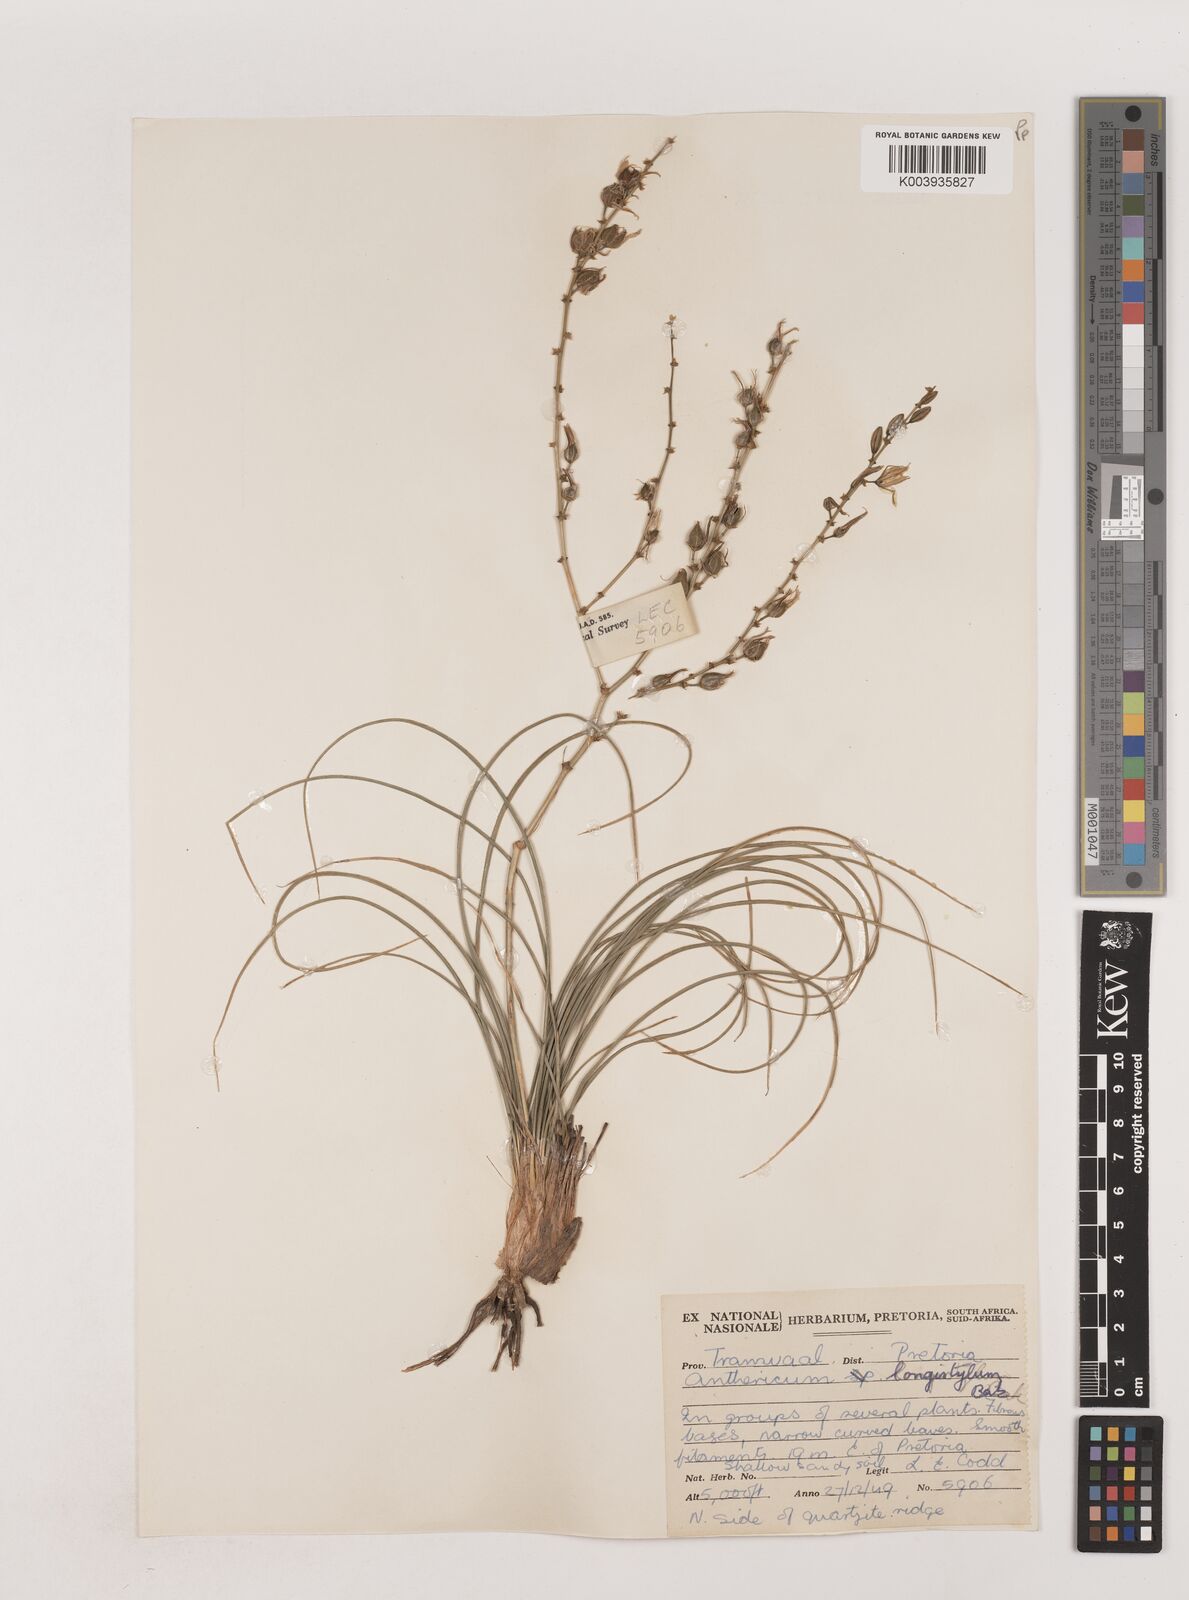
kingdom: Plantae
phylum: Tracheophyta
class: Liliopsida
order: Asparagales
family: Asparagaceae
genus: Chlorophytum
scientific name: Chlorophytum recurvifolium
